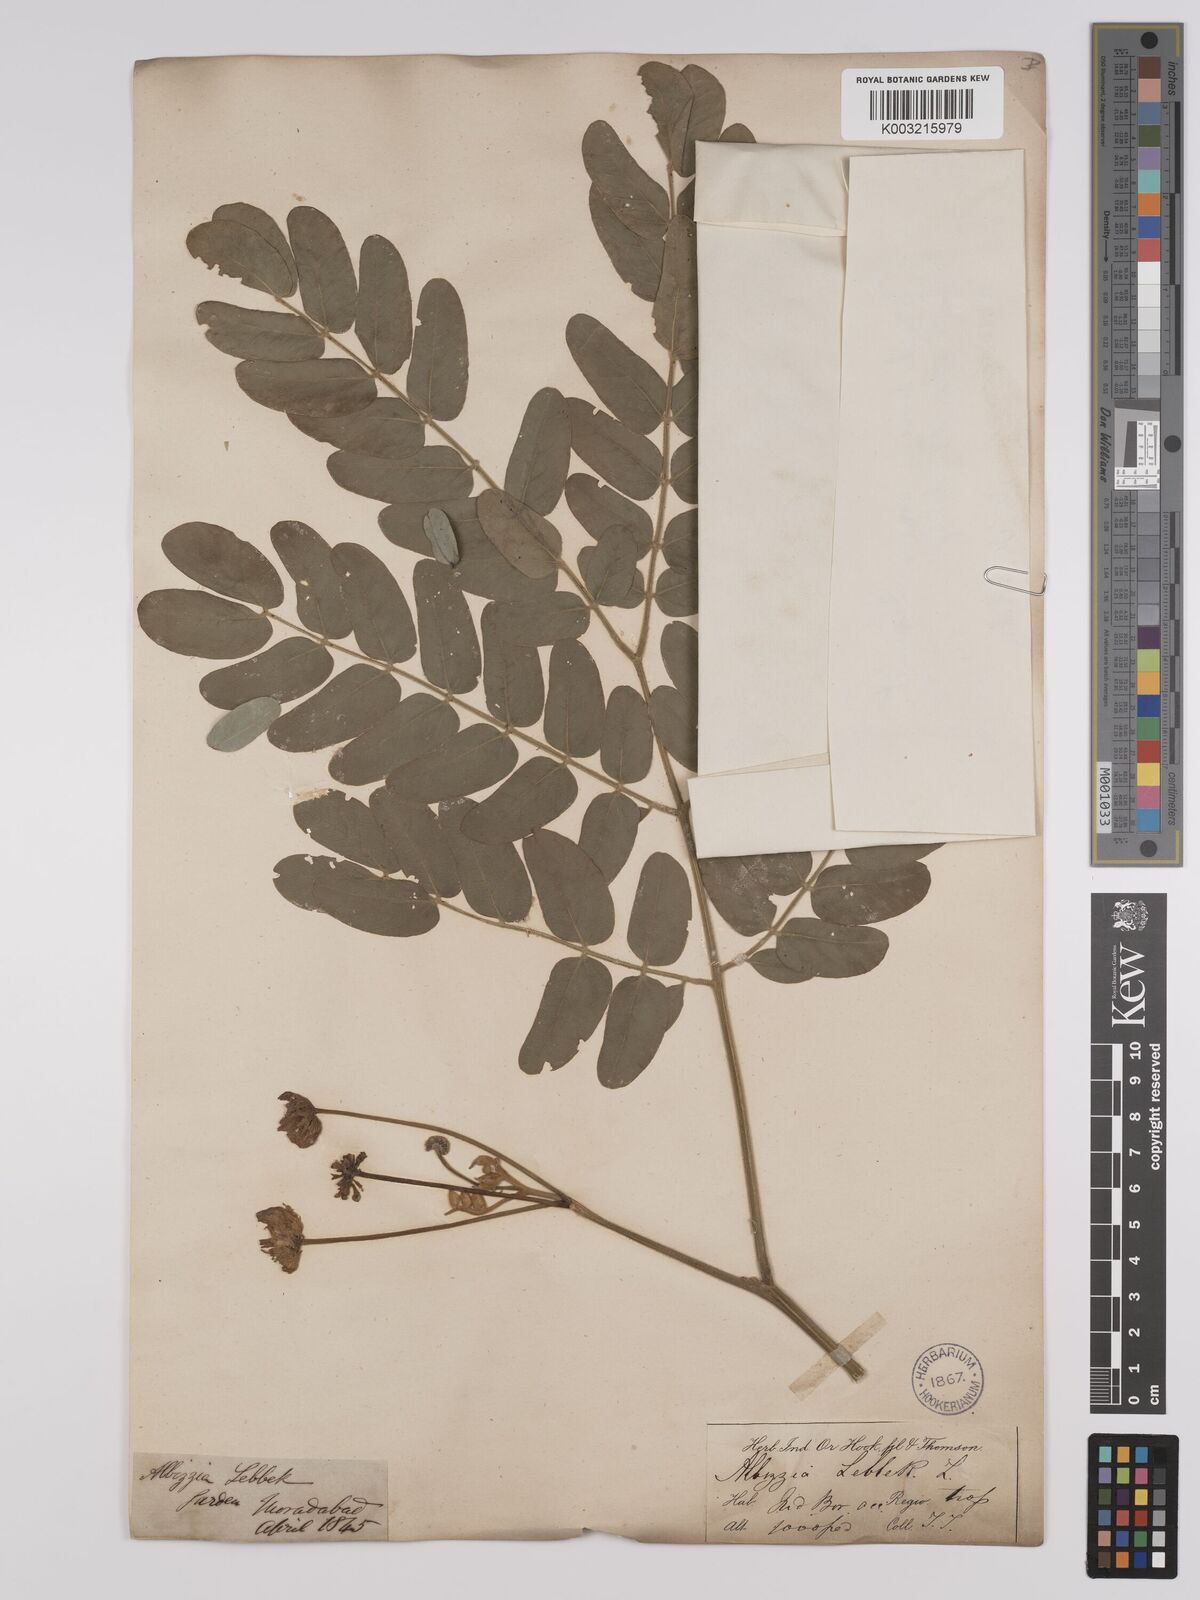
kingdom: Plantae
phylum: Tracheophyta
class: Magnoliopsida
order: Fabales
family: Fabaceae
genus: Albizia
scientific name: Albizia lebbeck
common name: Woman's tongue
